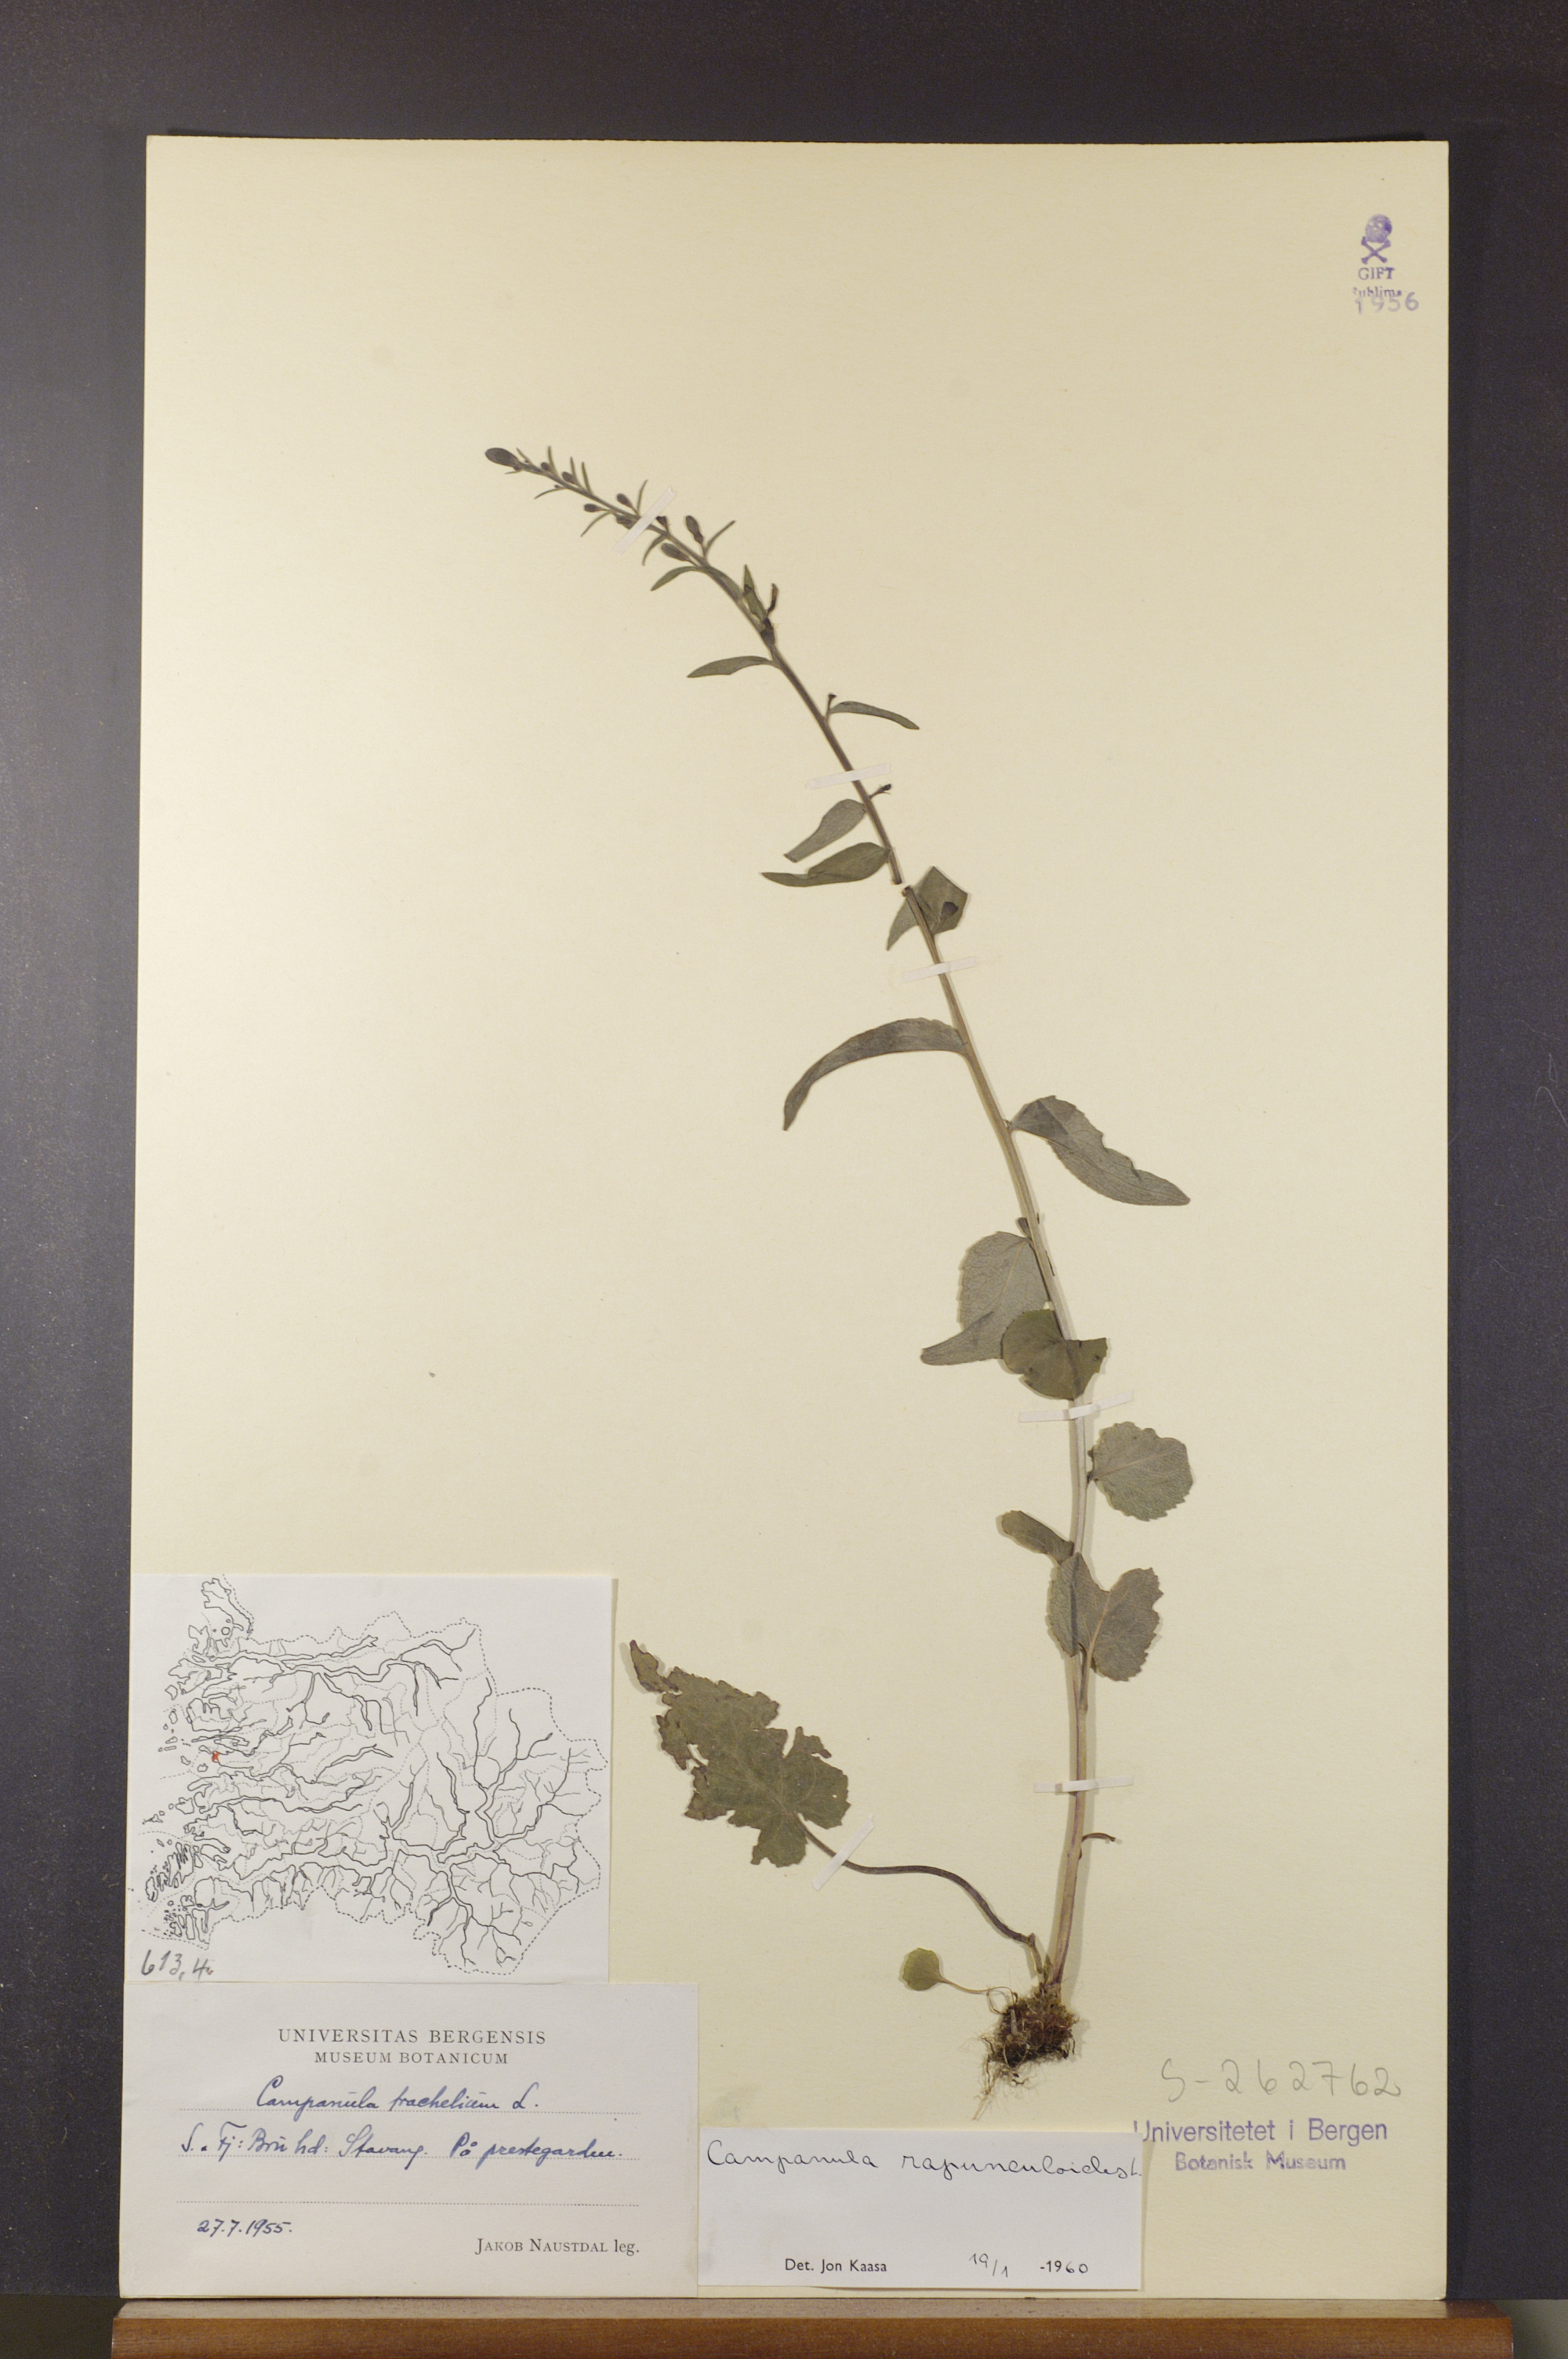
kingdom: Plantae
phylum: Tracheophyta
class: Magnoliopsida
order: Asterales
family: Campanulaceae
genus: Campanula
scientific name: Campanula rapunculoides
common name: Creeping bellflower
